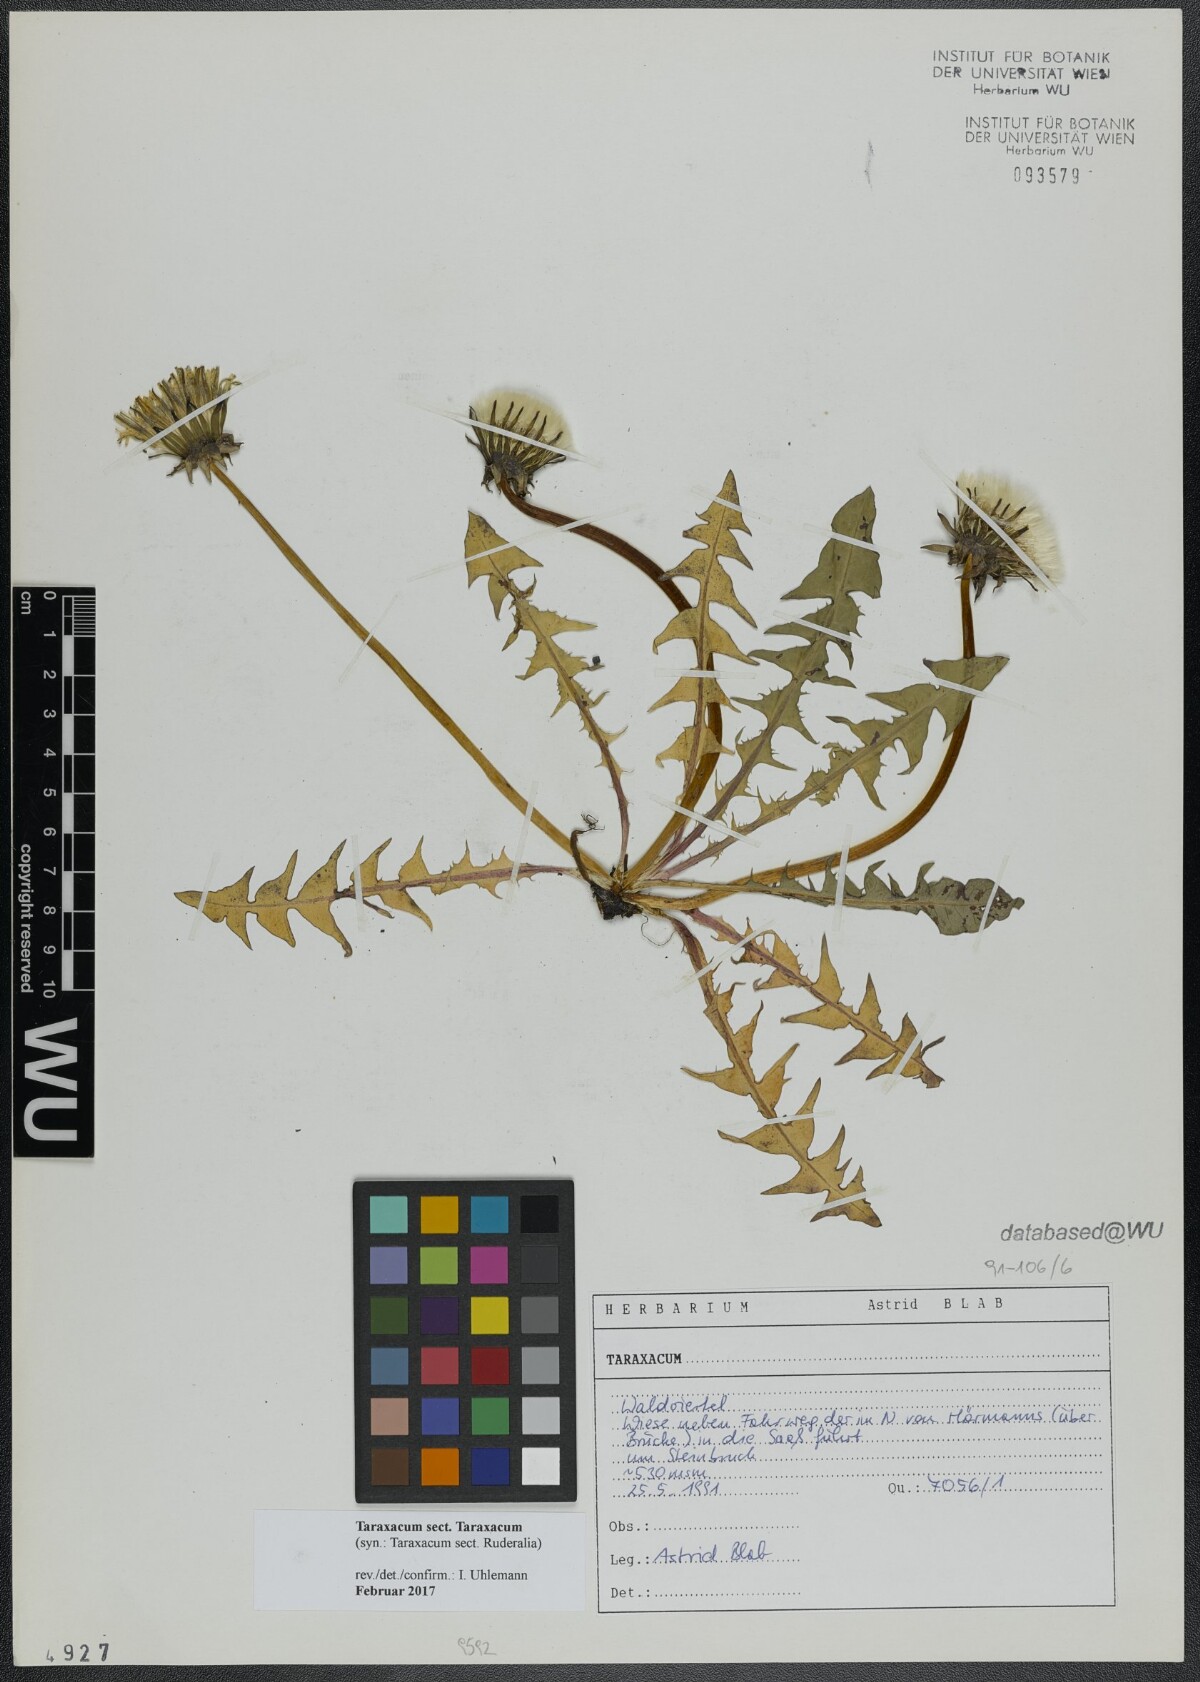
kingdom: Plantae
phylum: Tracheophyta
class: Magnoliopsida
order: Asterales
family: Asteraceae
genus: Taraxacum
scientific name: Taraxacum
